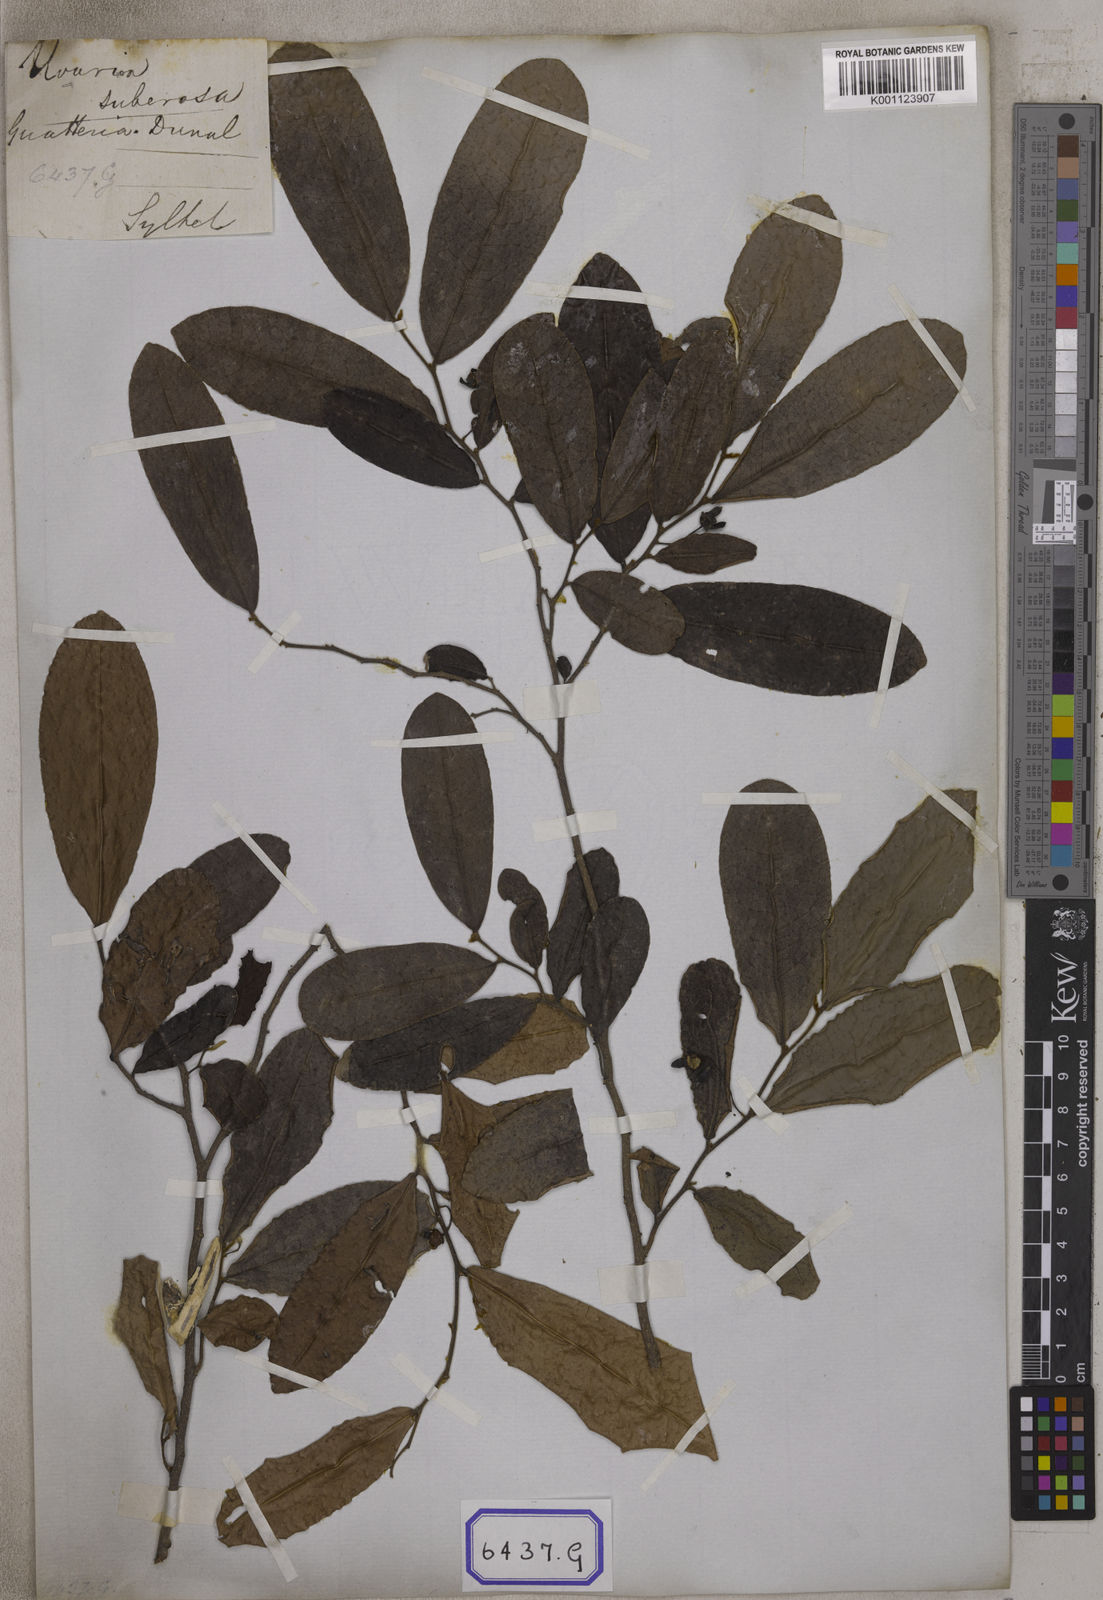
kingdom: Plantae
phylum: Tracheophyta
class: Magnoliopsida
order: Magnoliales
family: Annonaceae
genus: Polyalthia
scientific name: Polyalthia suberosa
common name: Polyalthia plant
